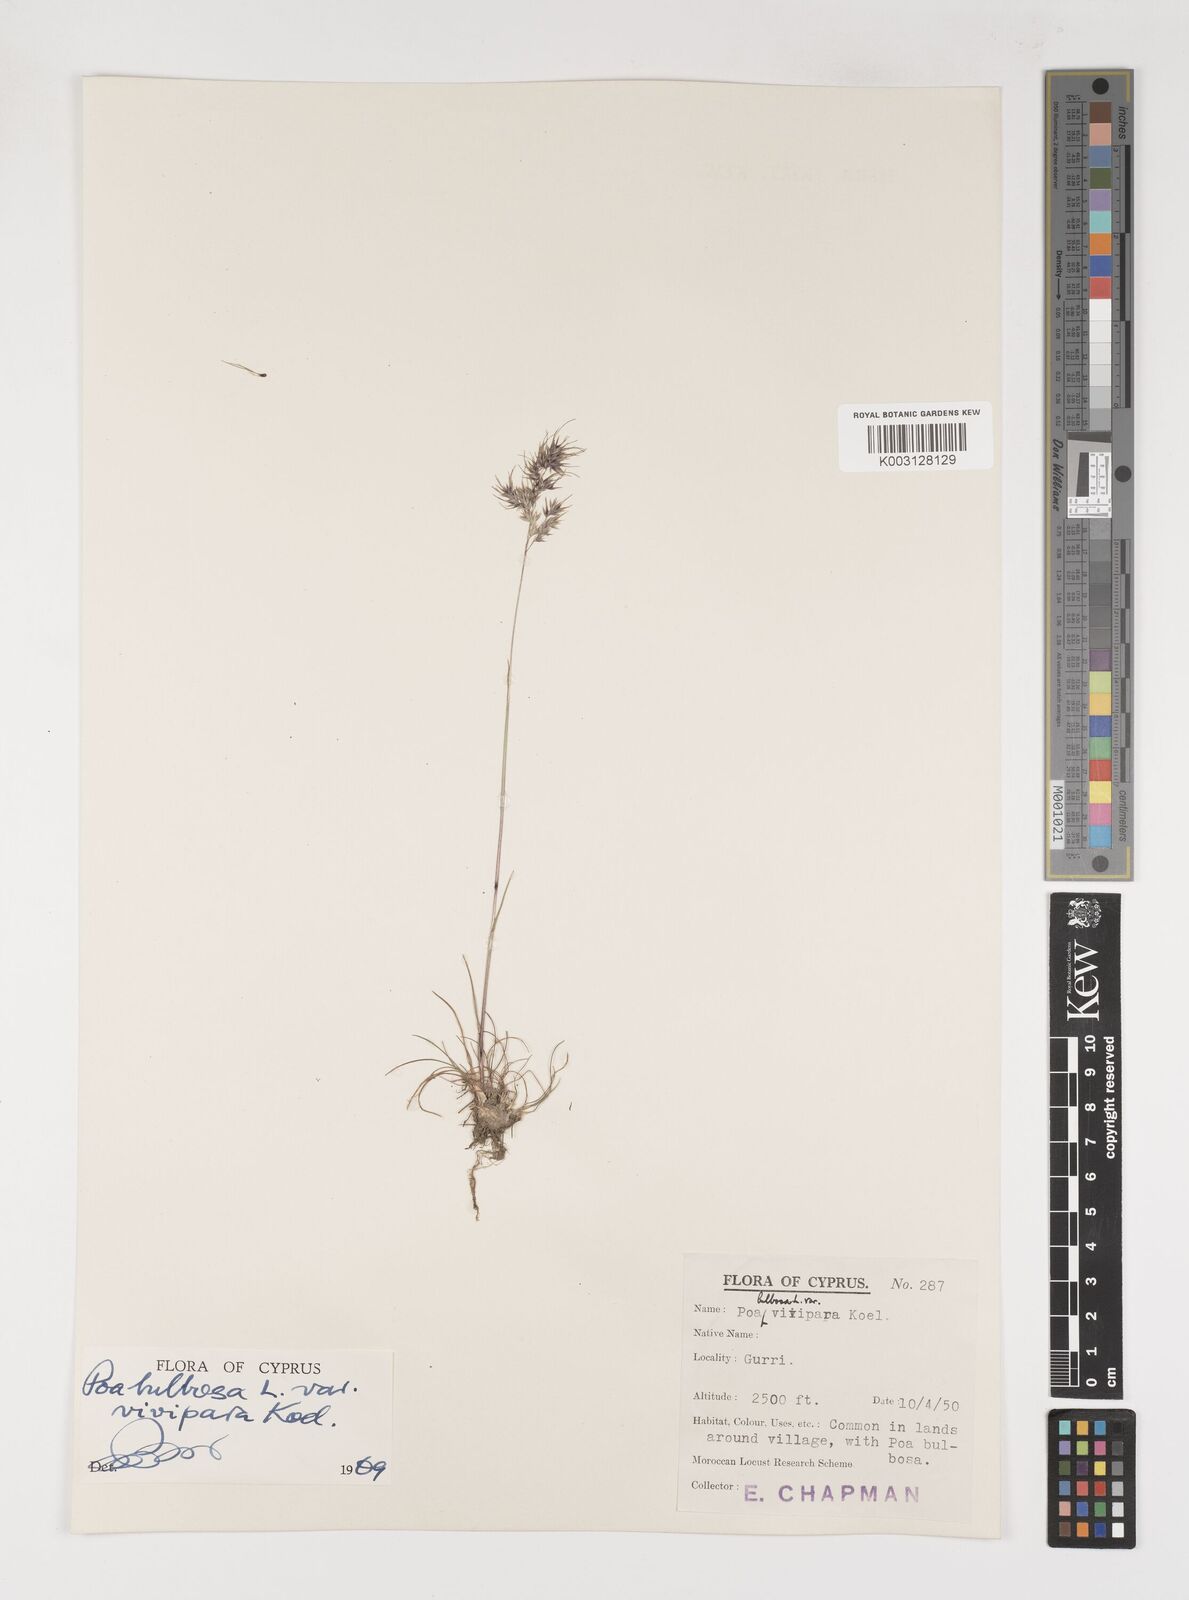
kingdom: Plantae
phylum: Tracheophyta
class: Liliopsida
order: Poales
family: Poaceae
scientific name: Poaceae
